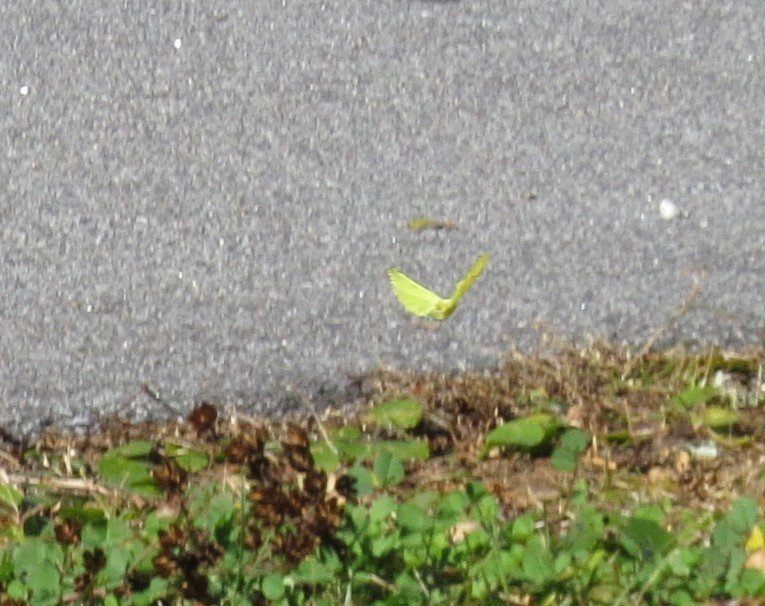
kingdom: Animalia
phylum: Arthropoda
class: Insecta
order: Lepidoptera
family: Pieridae
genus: Phoebis
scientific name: Phoebis sennae
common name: Cloudless Sulphur
